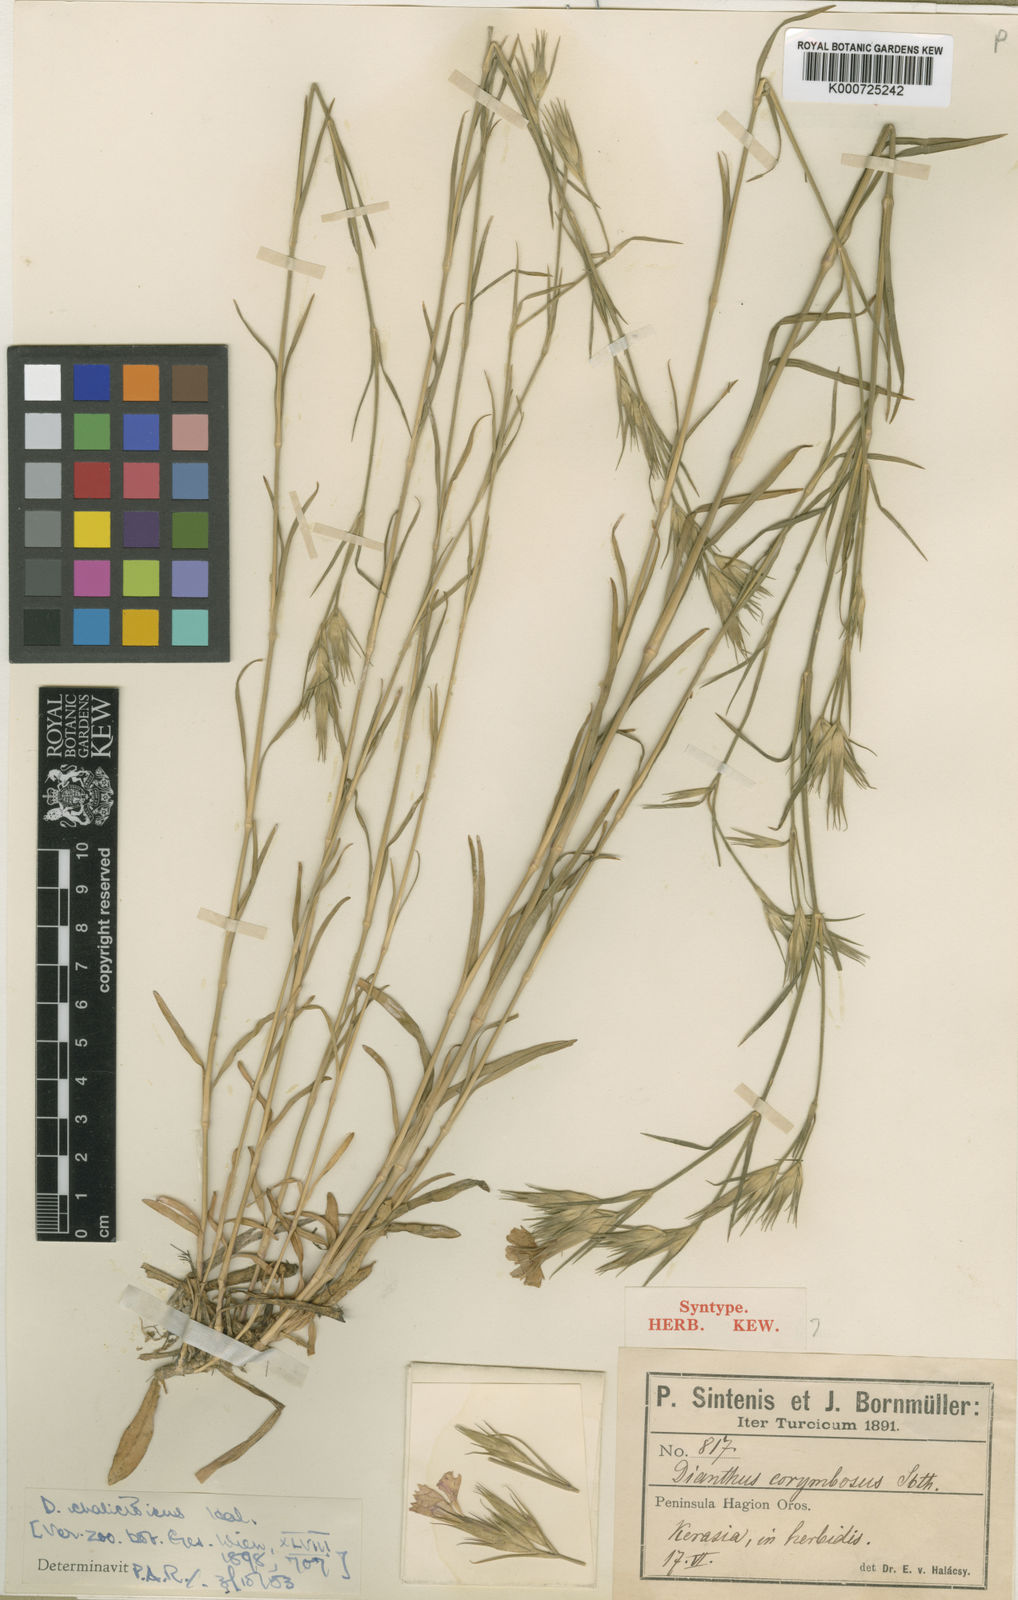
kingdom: Plantae
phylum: Tracheophyta
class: Magnoliopsida
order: Caryophyllales
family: Caryophyllaceae
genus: Dianthus
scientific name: Dianthus corymbosus
